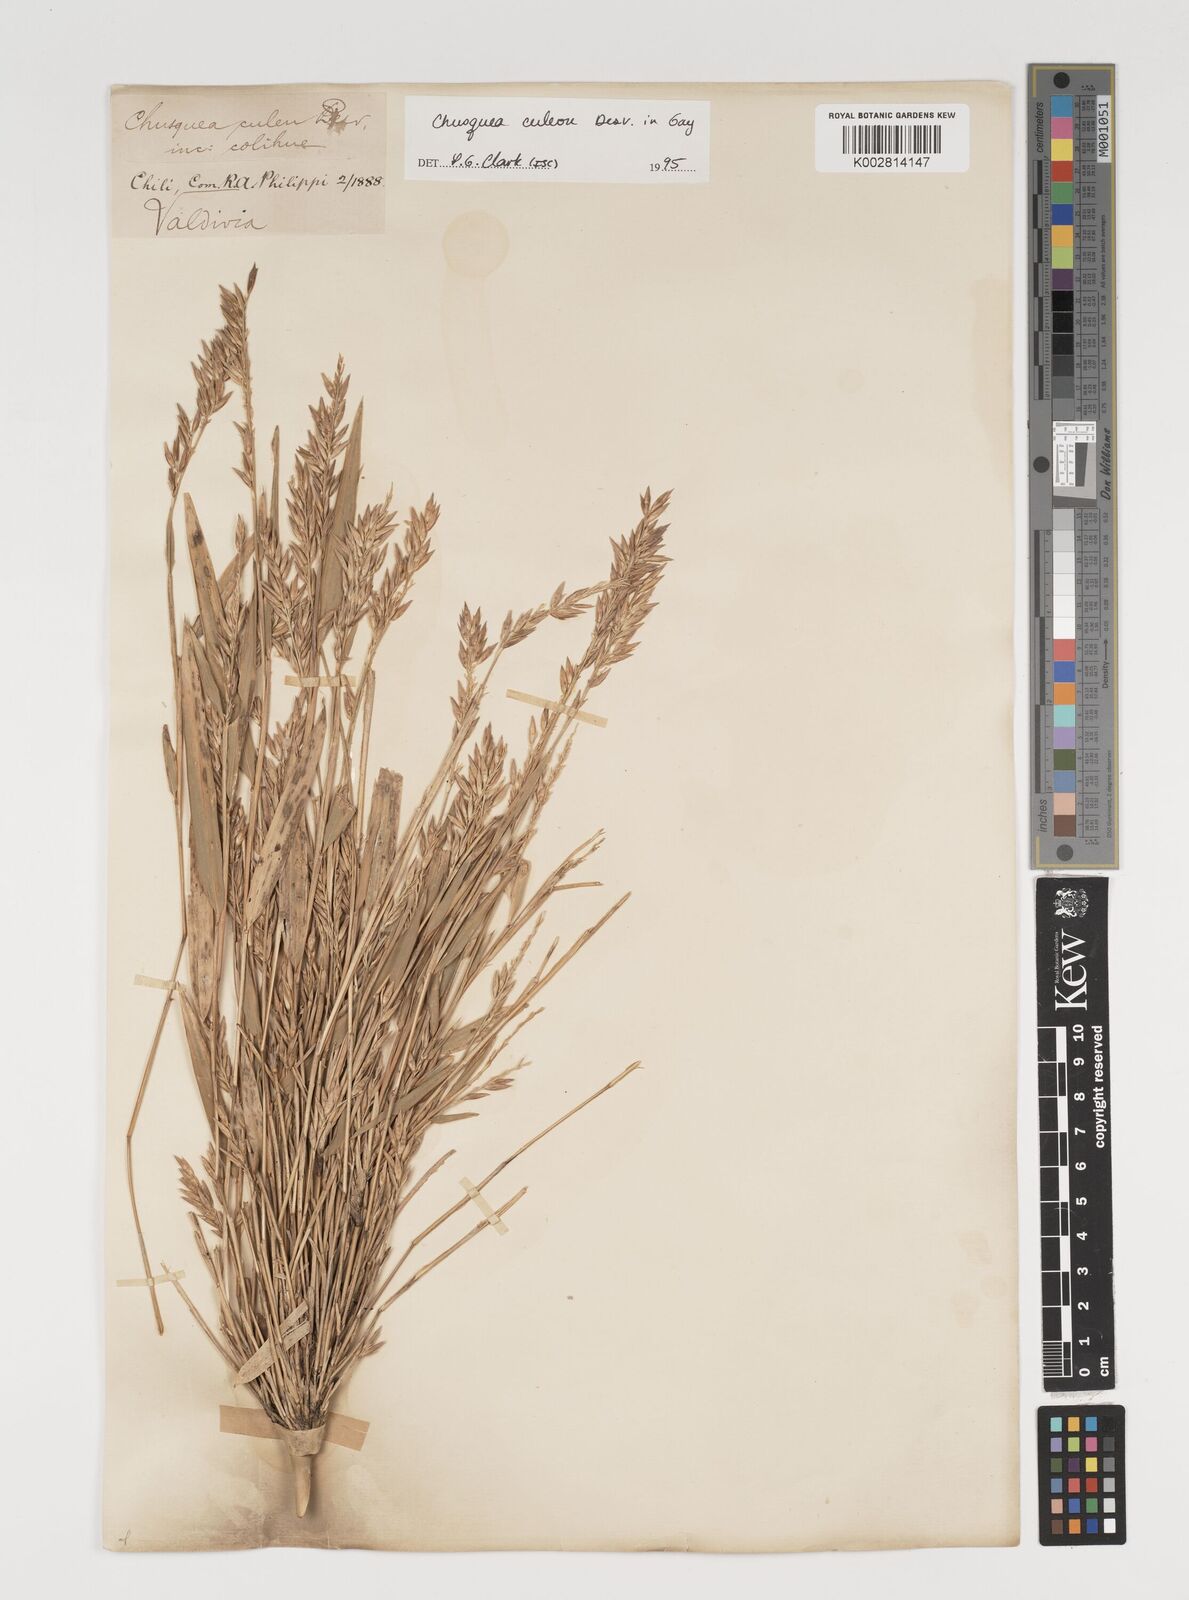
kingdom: Plantae
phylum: Tracheophyta
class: Liliopsida
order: Poales
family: Poaceae
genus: Chusquea
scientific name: Chusquea culeou
